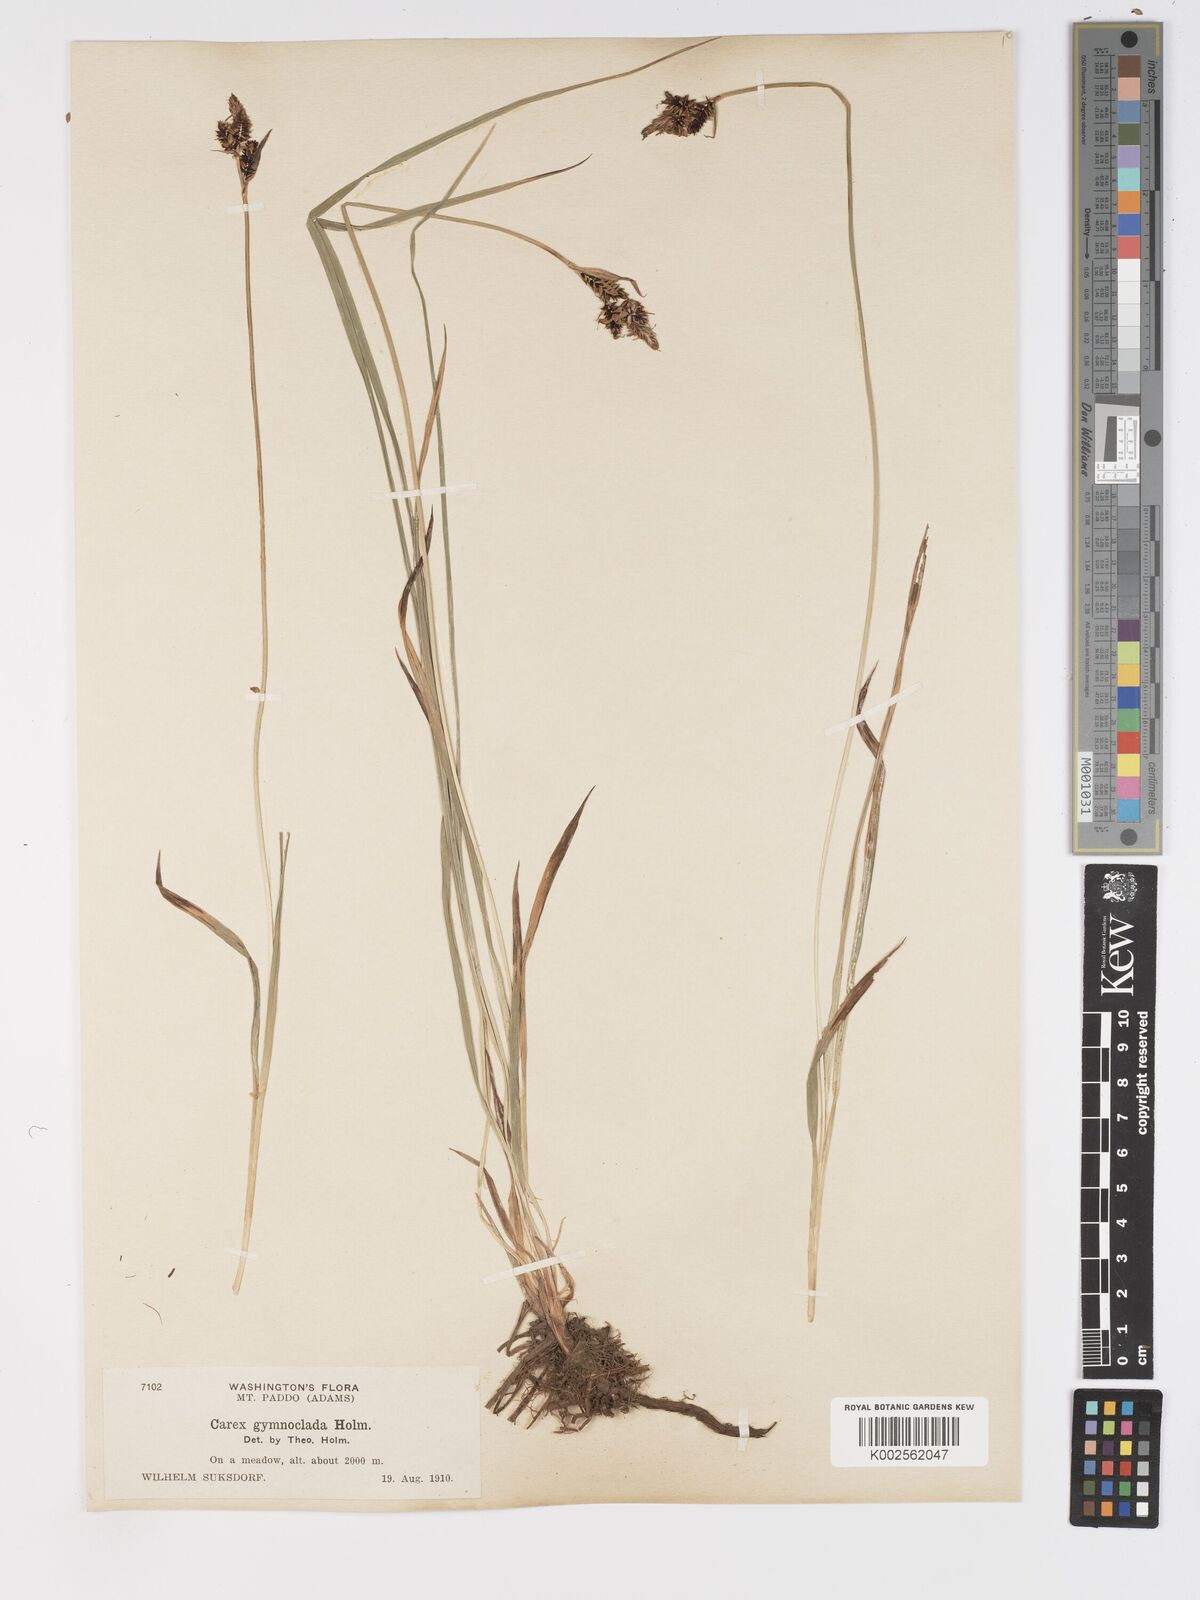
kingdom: Plantae
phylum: Tracheophyta
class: Liliopsida
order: Poales
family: Cyperaceae
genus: Carex
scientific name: Carex scopulorum
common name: Holm's rocky mountain sedge
